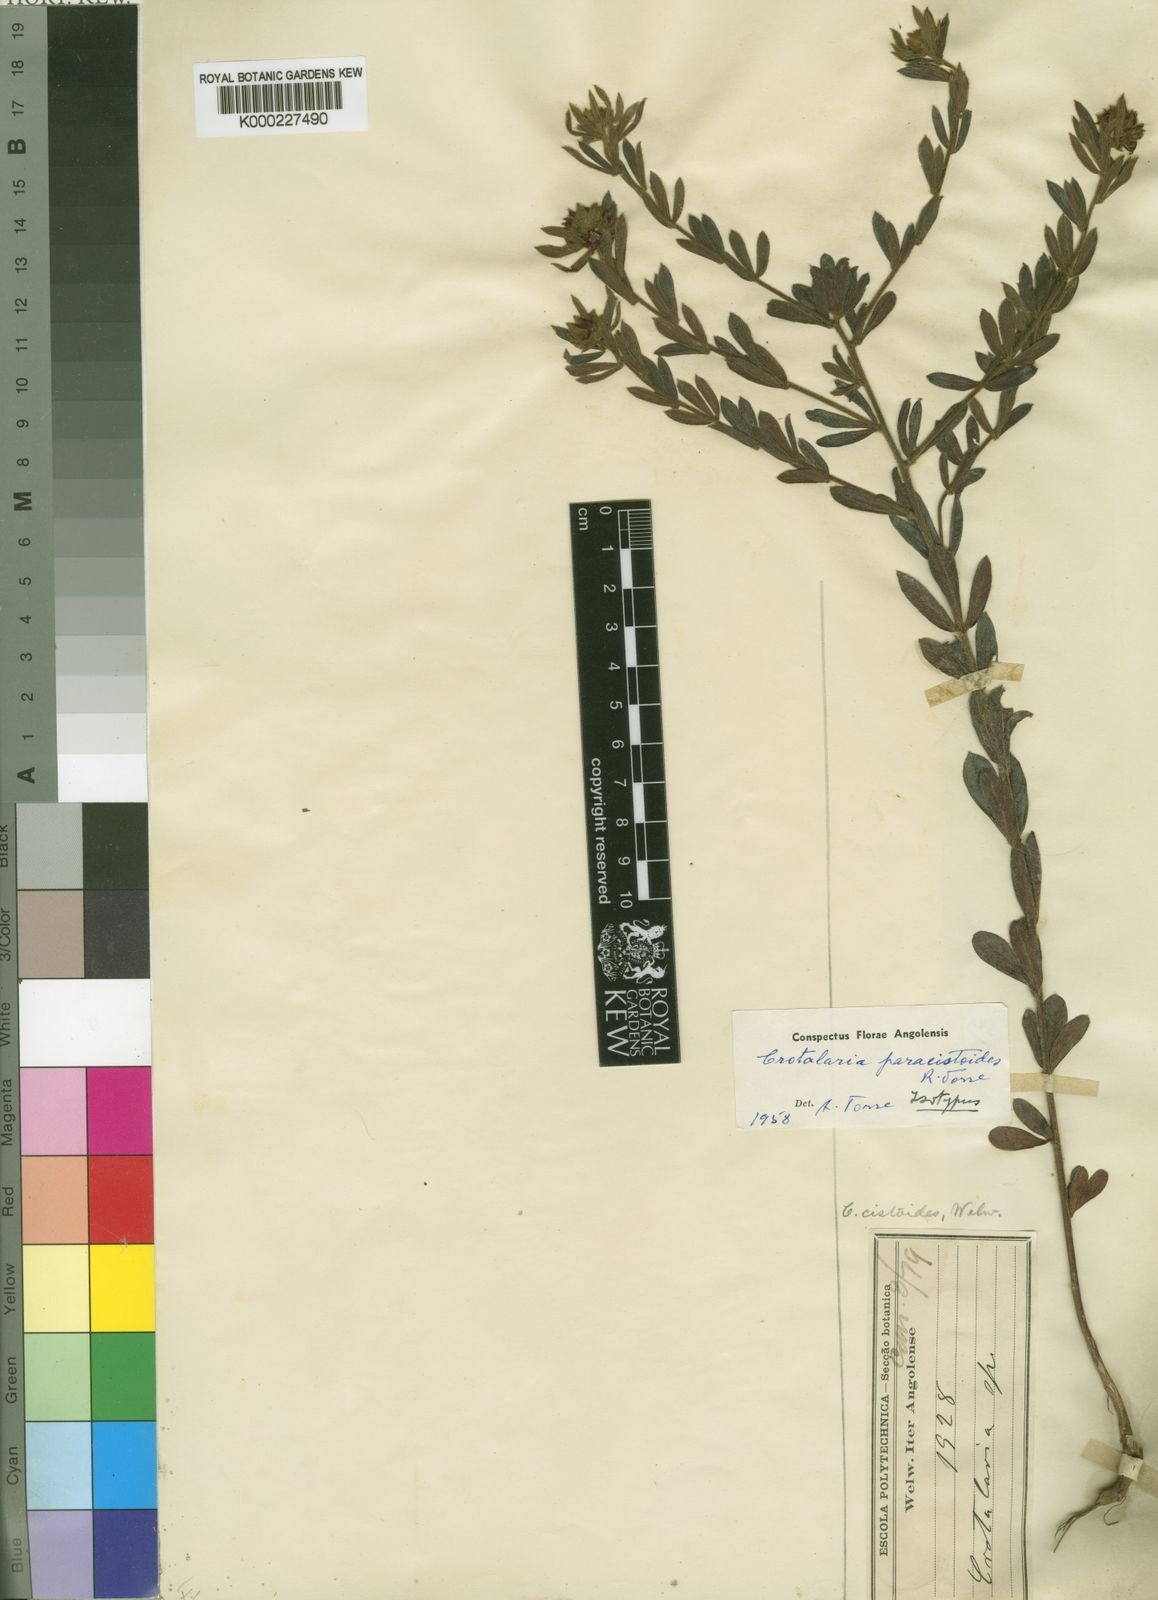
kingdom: Plantae
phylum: Tracheophyta
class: Magnoliopsida
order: Fabales
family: Fabaceae
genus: Crotalaria
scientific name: Crotalaria paracistoides
